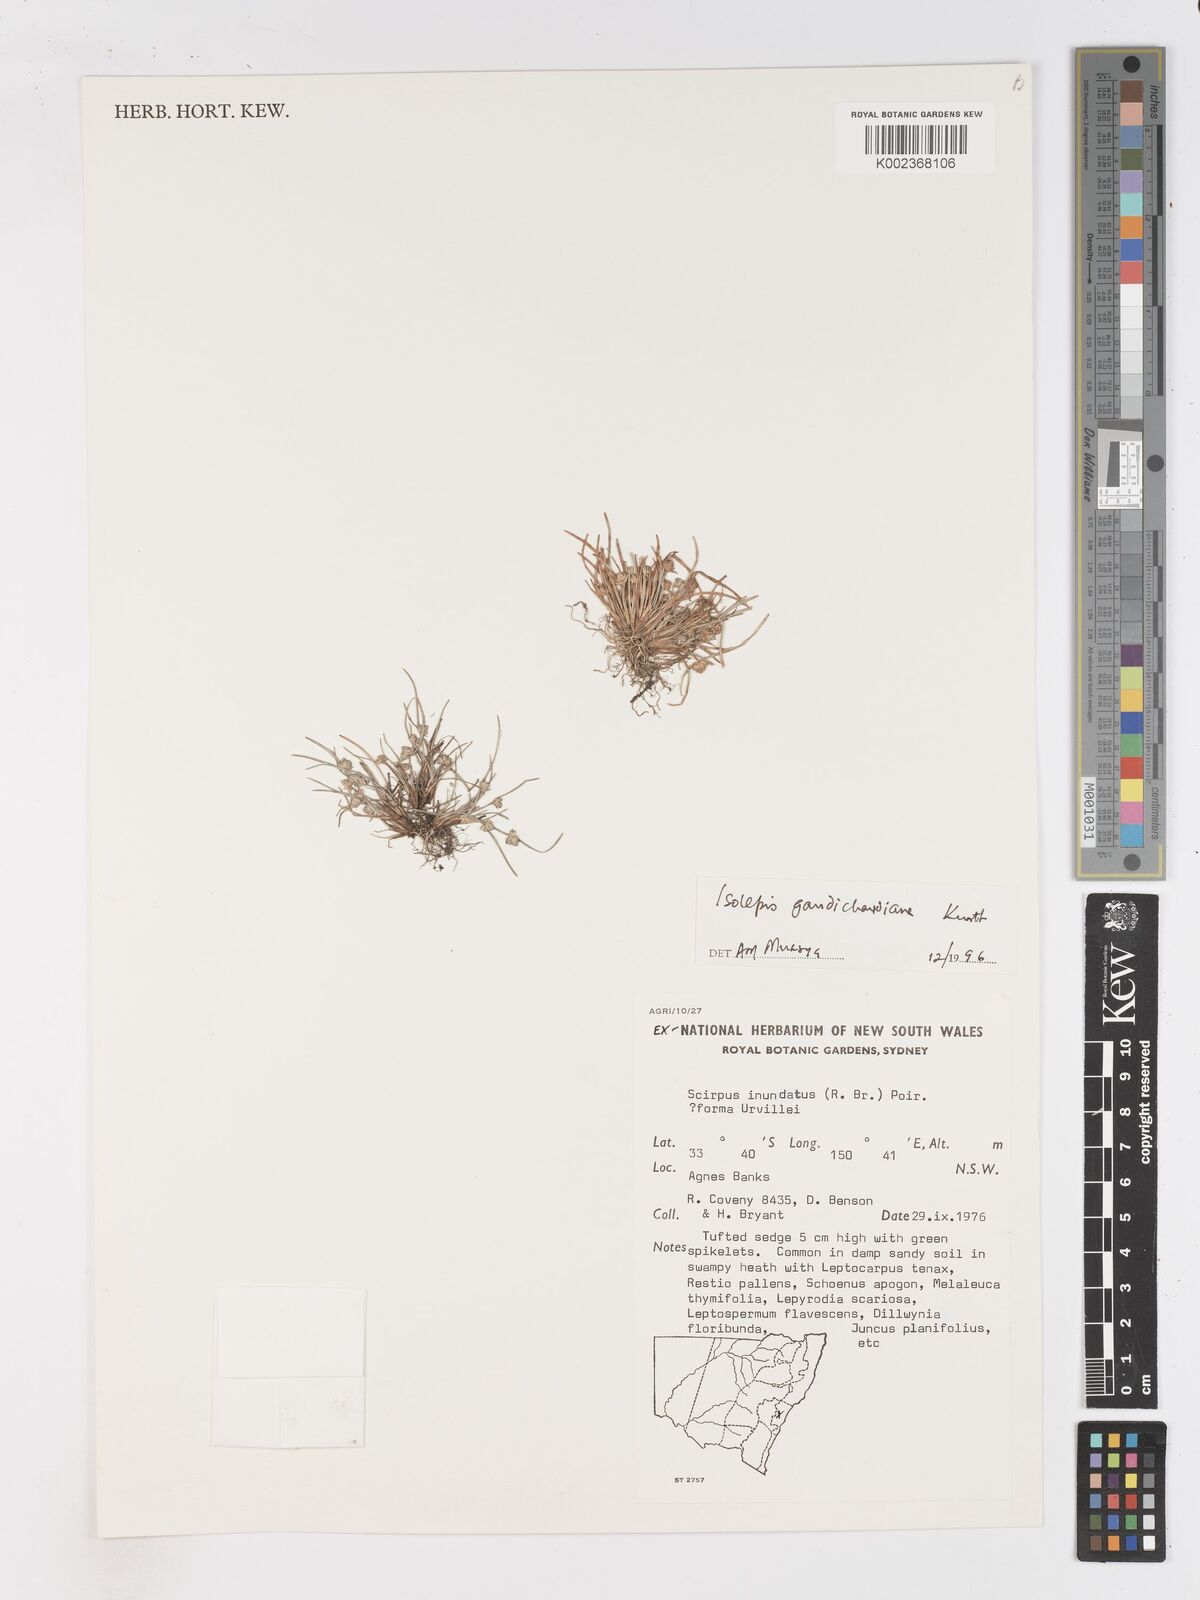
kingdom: Plantae
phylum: Tracheophyta
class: Liliopsida
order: Poales
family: Cyperaceae
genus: Isolepis
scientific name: Isolepis gaudichaudiana
